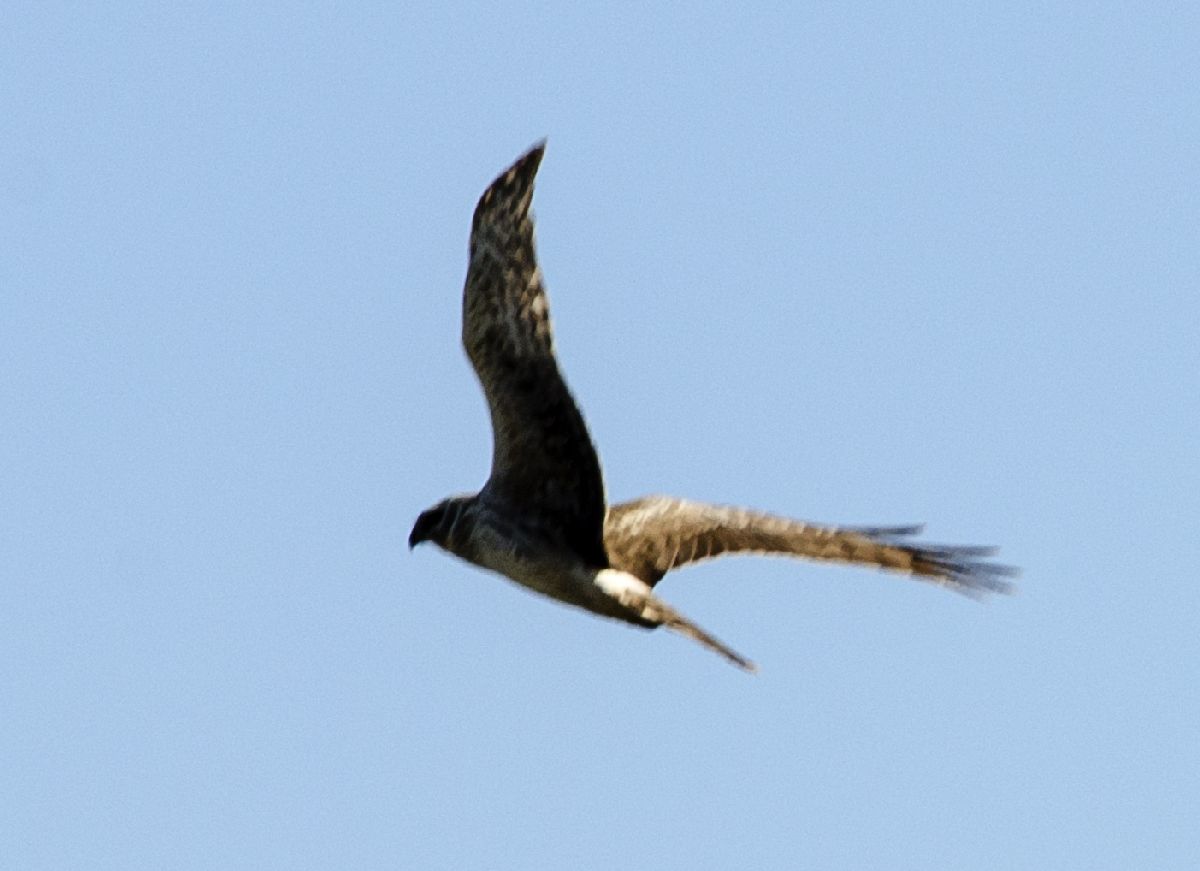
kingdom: Animalia
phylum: Chordata
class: Aves
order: Accipitriformes
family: Accipitridae
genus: Circus
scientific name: Circus cyaneus
